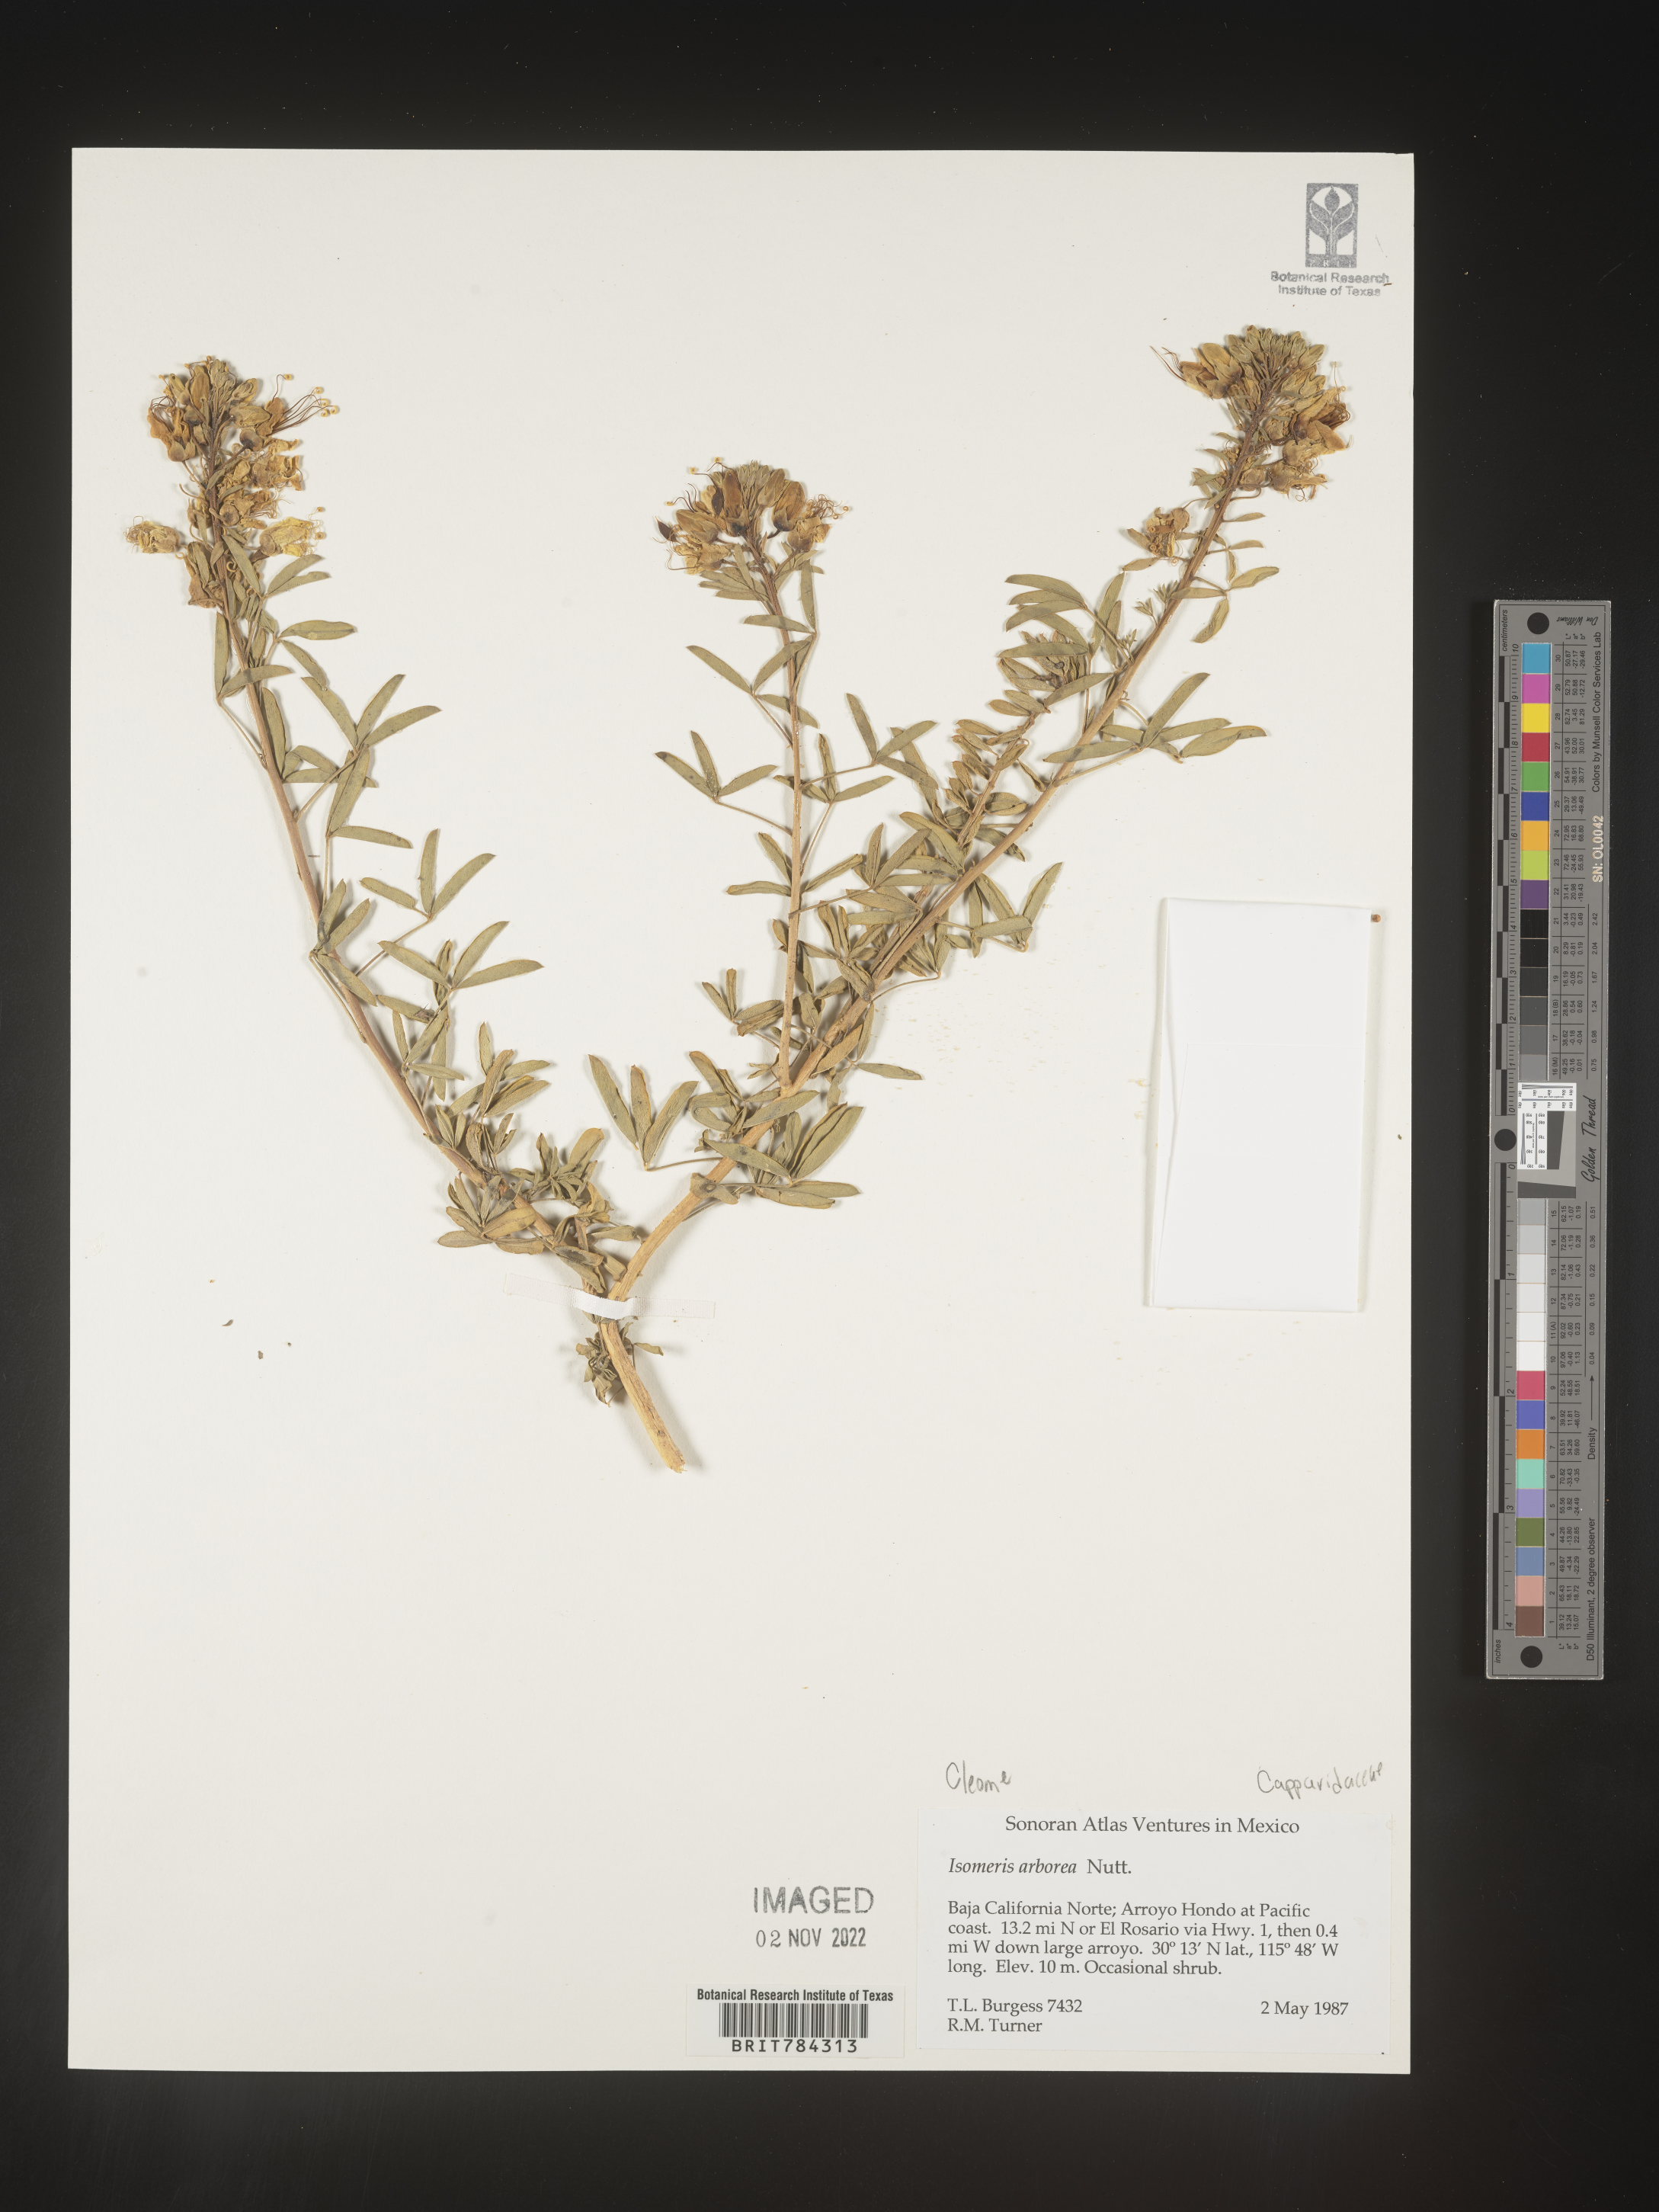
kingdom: Plantae
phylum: Tracheophyta
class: Magnoliopsida
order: Brassicales
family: Cleomaceae
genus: Cleome
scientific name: Cleome
